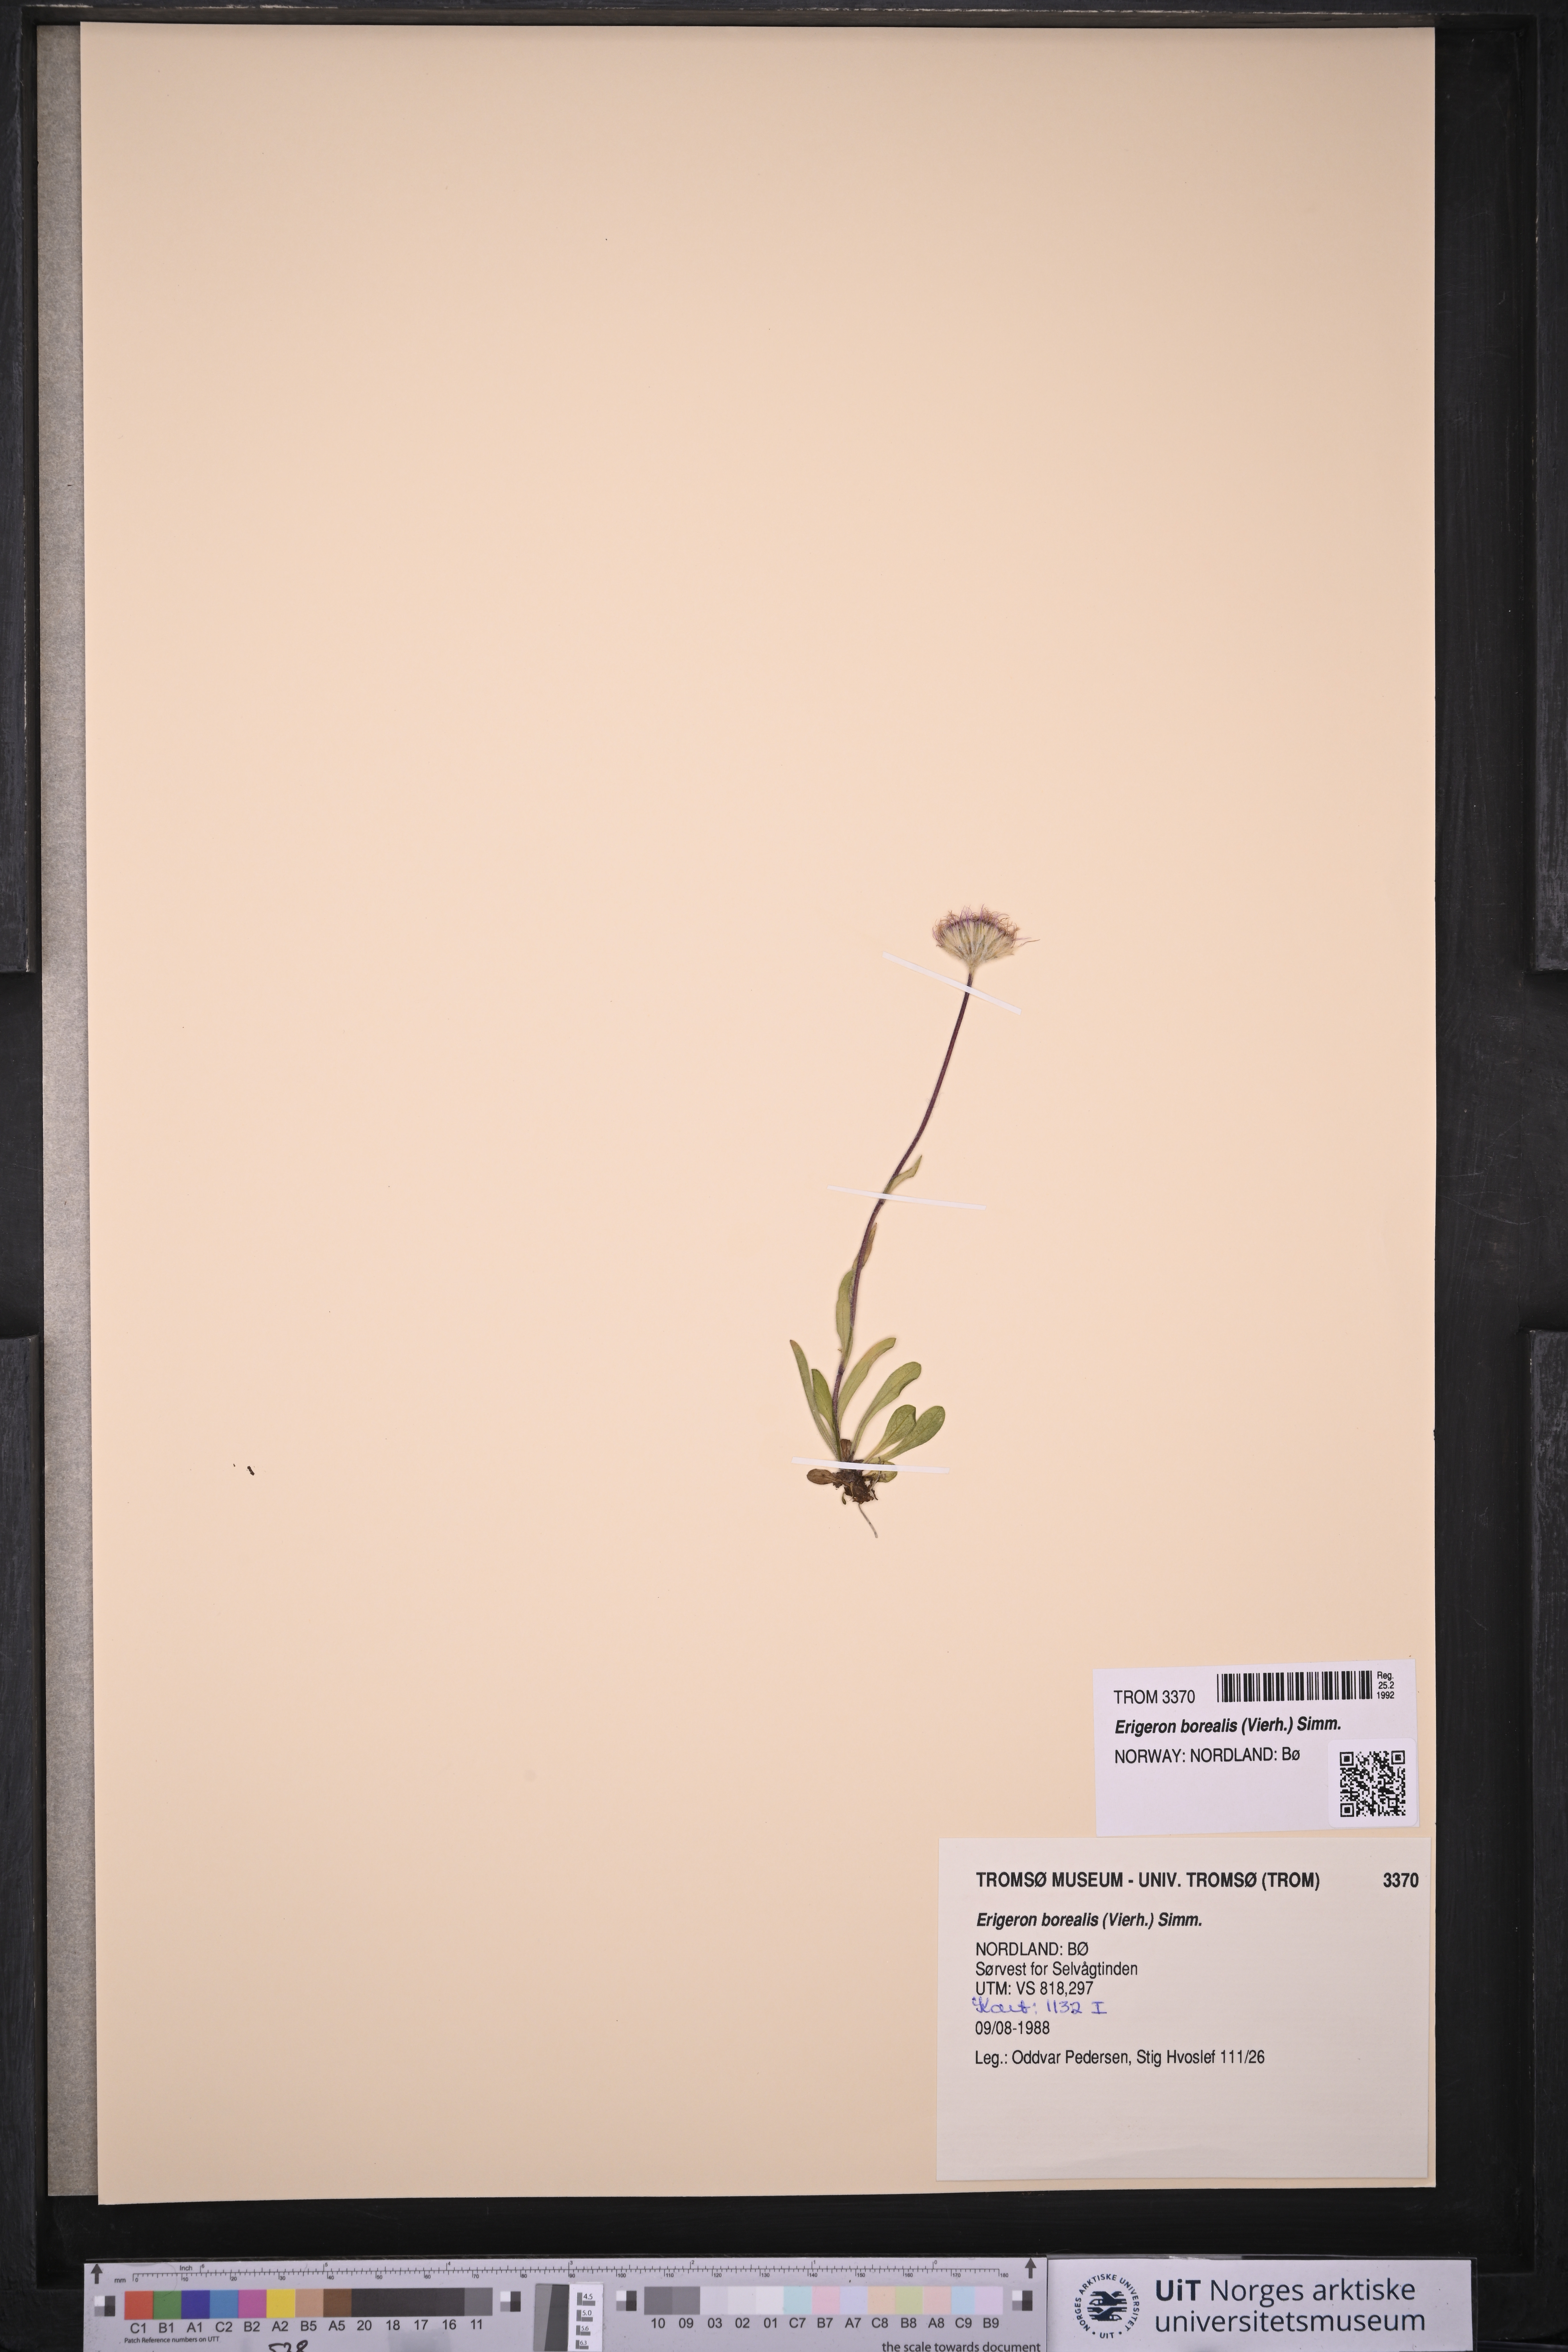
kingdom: Plantae
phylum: Tracheophyta
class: Magnoliopsida
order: Asterales
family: Asteraceae
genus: Erigeron
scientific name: Erigeron borealis
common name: Alpine fleabane
